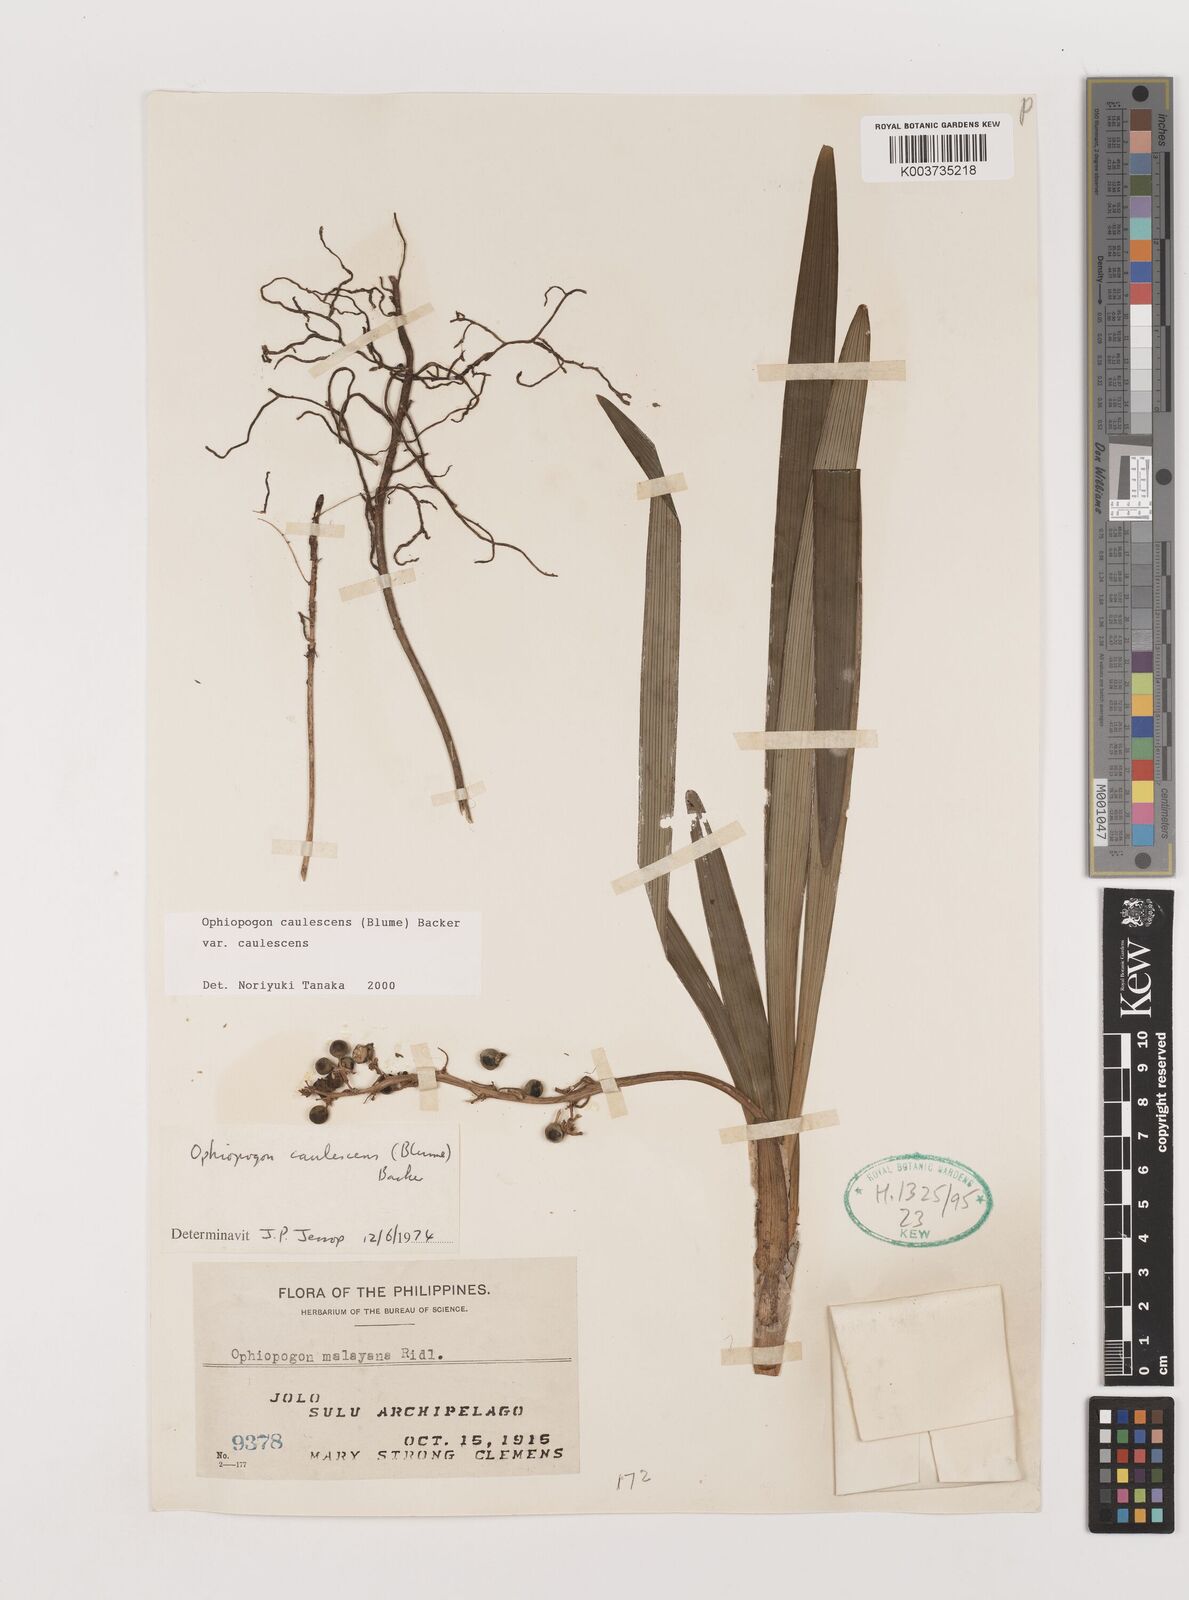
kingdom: Plantae
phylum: Tracheophyta
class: Liliopsida
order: Asparagales
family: Asparagaceae
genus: Ophiopogon
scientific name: Ophiopogon caulescens
